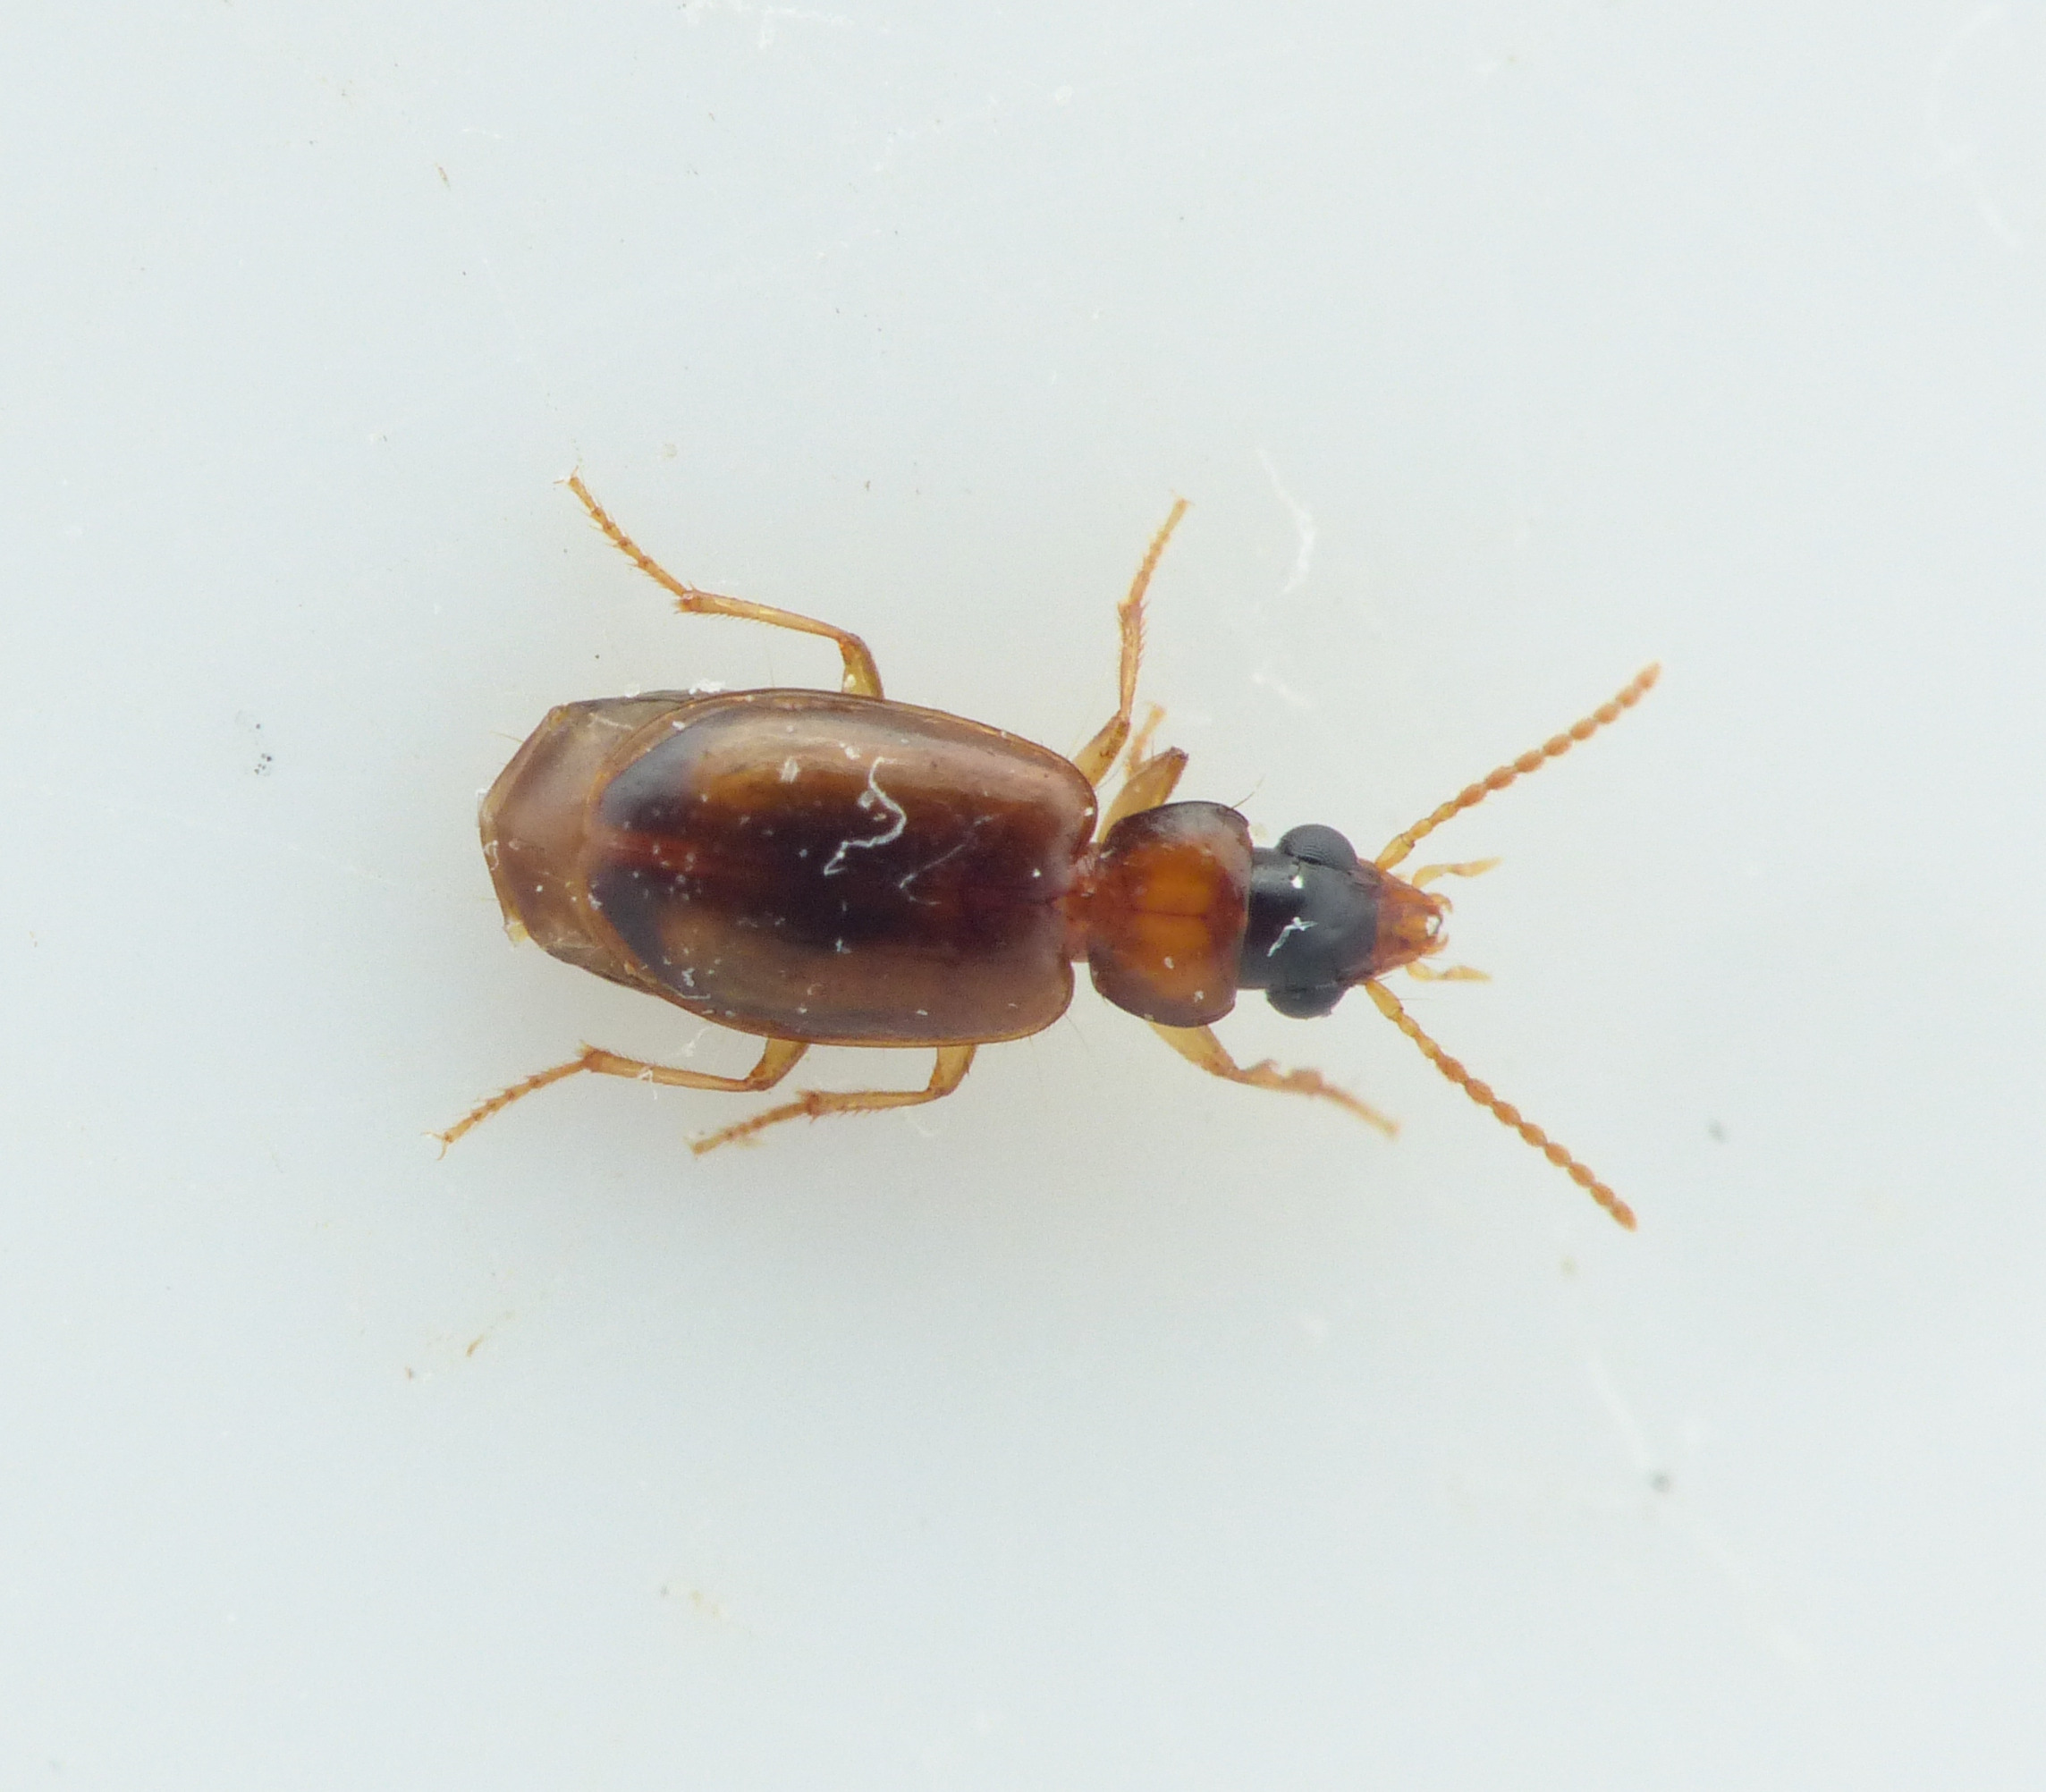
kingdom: Animalia
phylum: Arthropoda
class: Insecta
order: Coleoptera
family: Carabidae
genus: Perigona
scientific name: Perigona nigriceps
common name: Kompostløber
